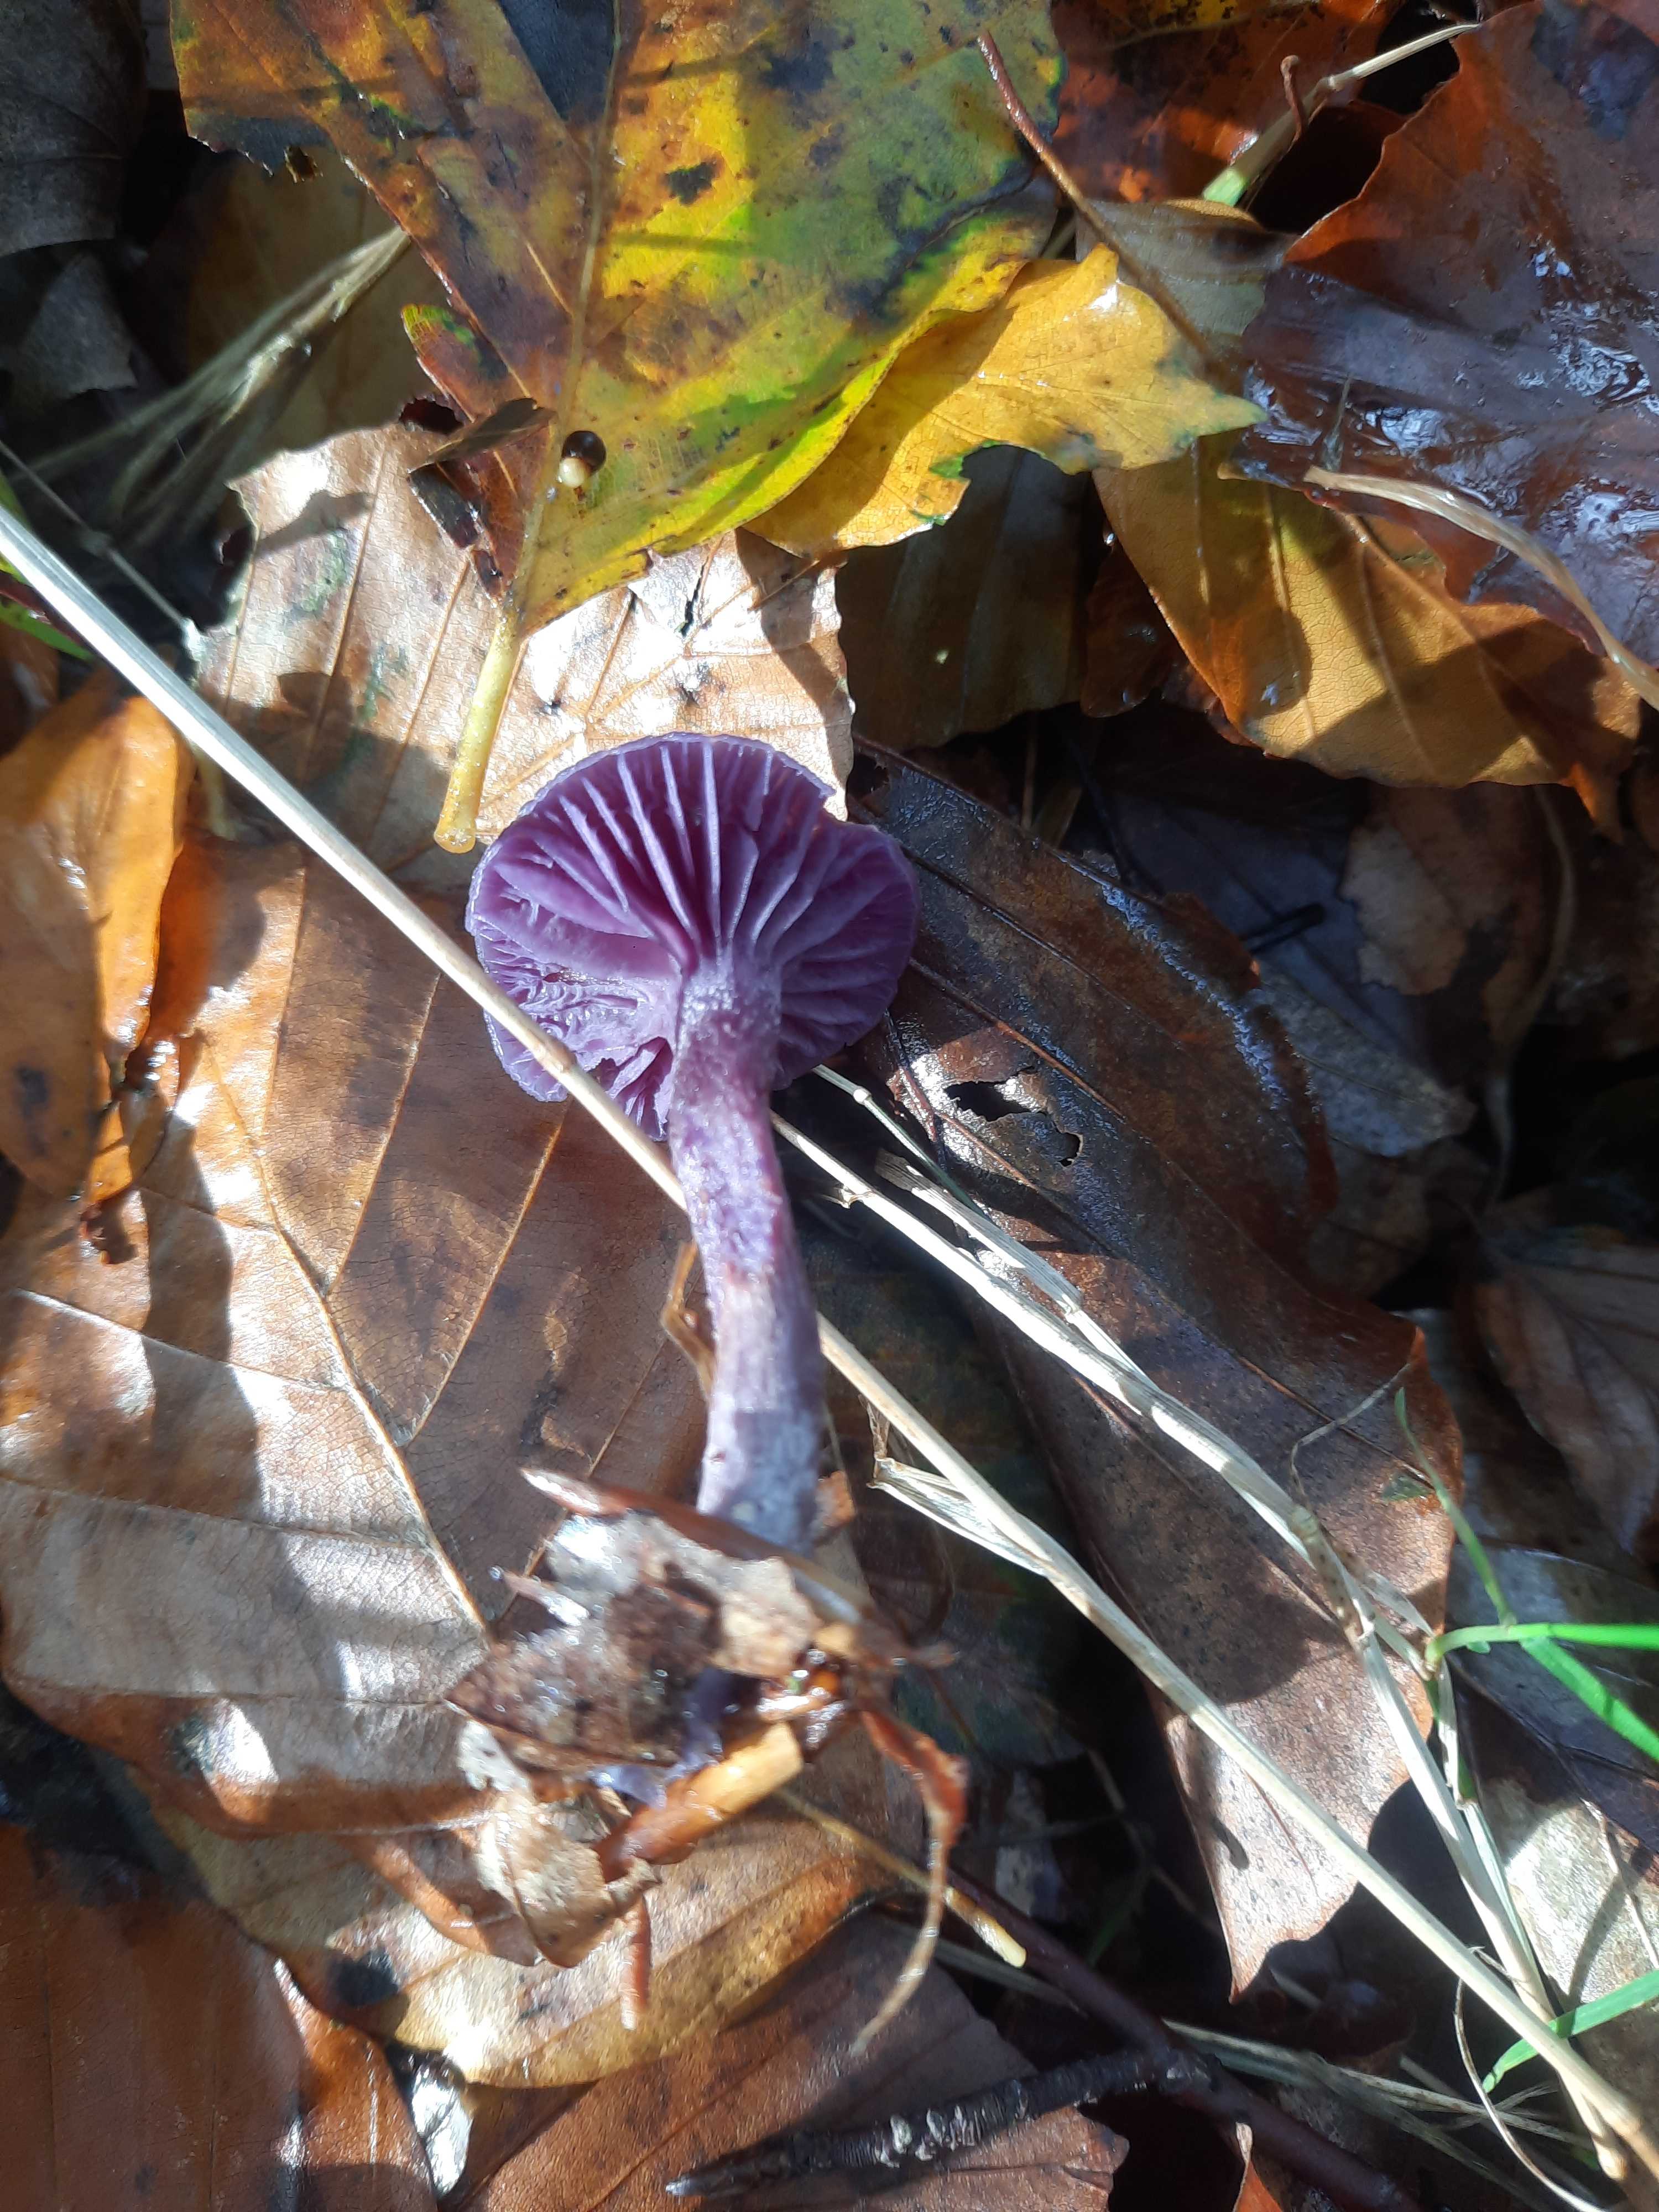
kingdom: Fungi
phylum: Basidiomycota
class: Agaricomycetes
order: Agaricales
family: Hydnangiaceae
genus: Laccaria
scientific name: Laccaria amethystina
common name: violet ametysthat
